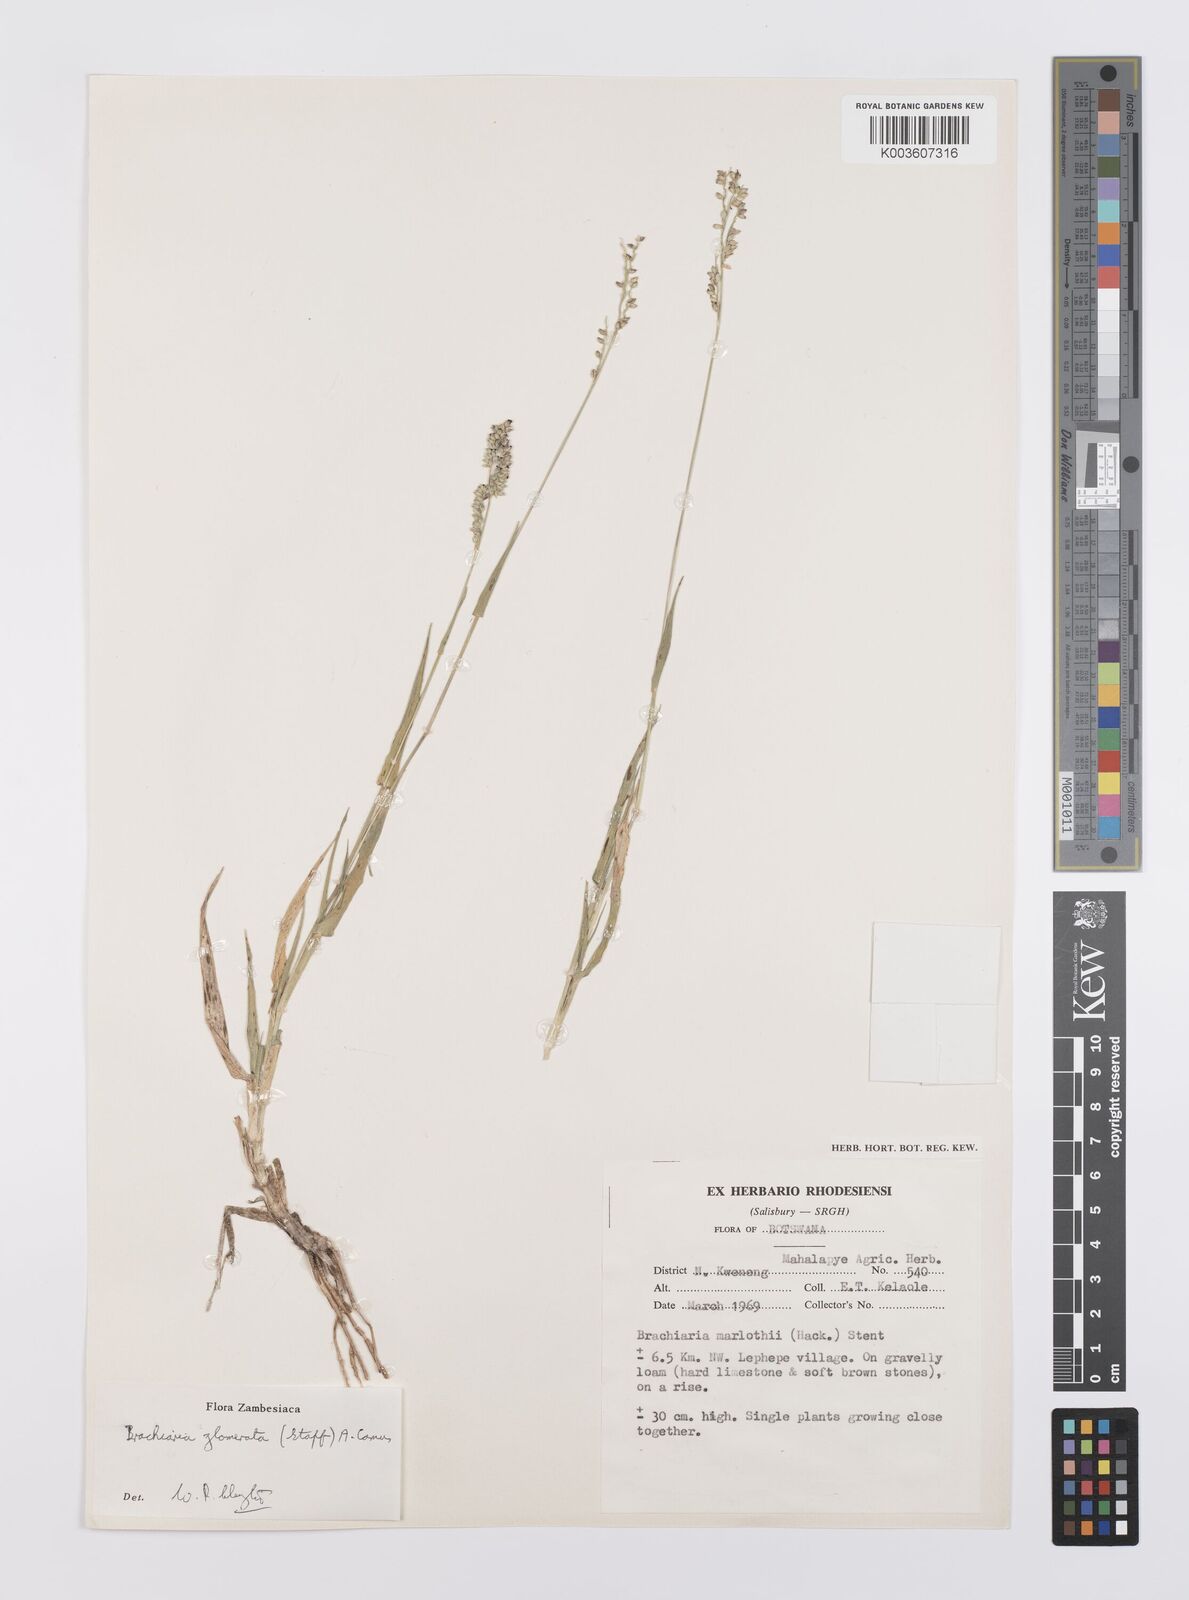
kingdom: Plantae
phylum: Tracheophyta
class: Liliopsida
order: Poales
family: Poaceae
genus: Urochloa
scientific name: Urochloa Brachiaria glomerata
